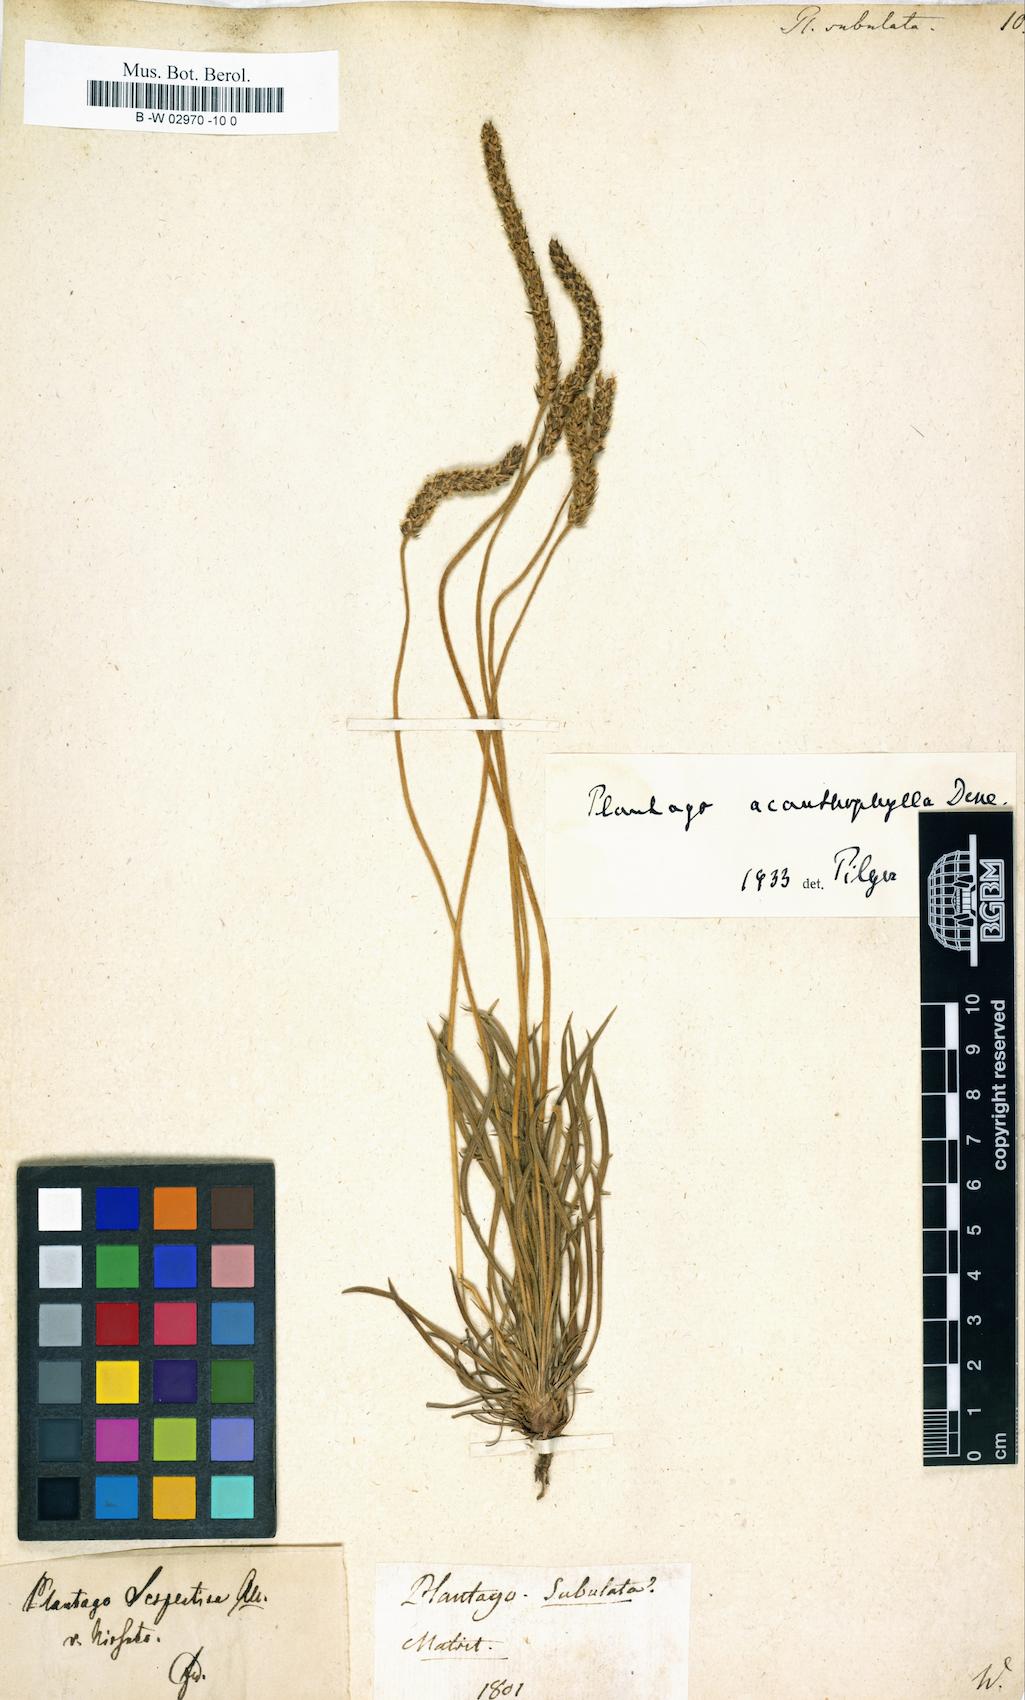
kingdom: Plantae
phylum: Tracheophyta
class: Magnoliopsida
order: Lamiales
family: Plantaginaceae
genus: Plantago
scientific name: Plantago subulata
